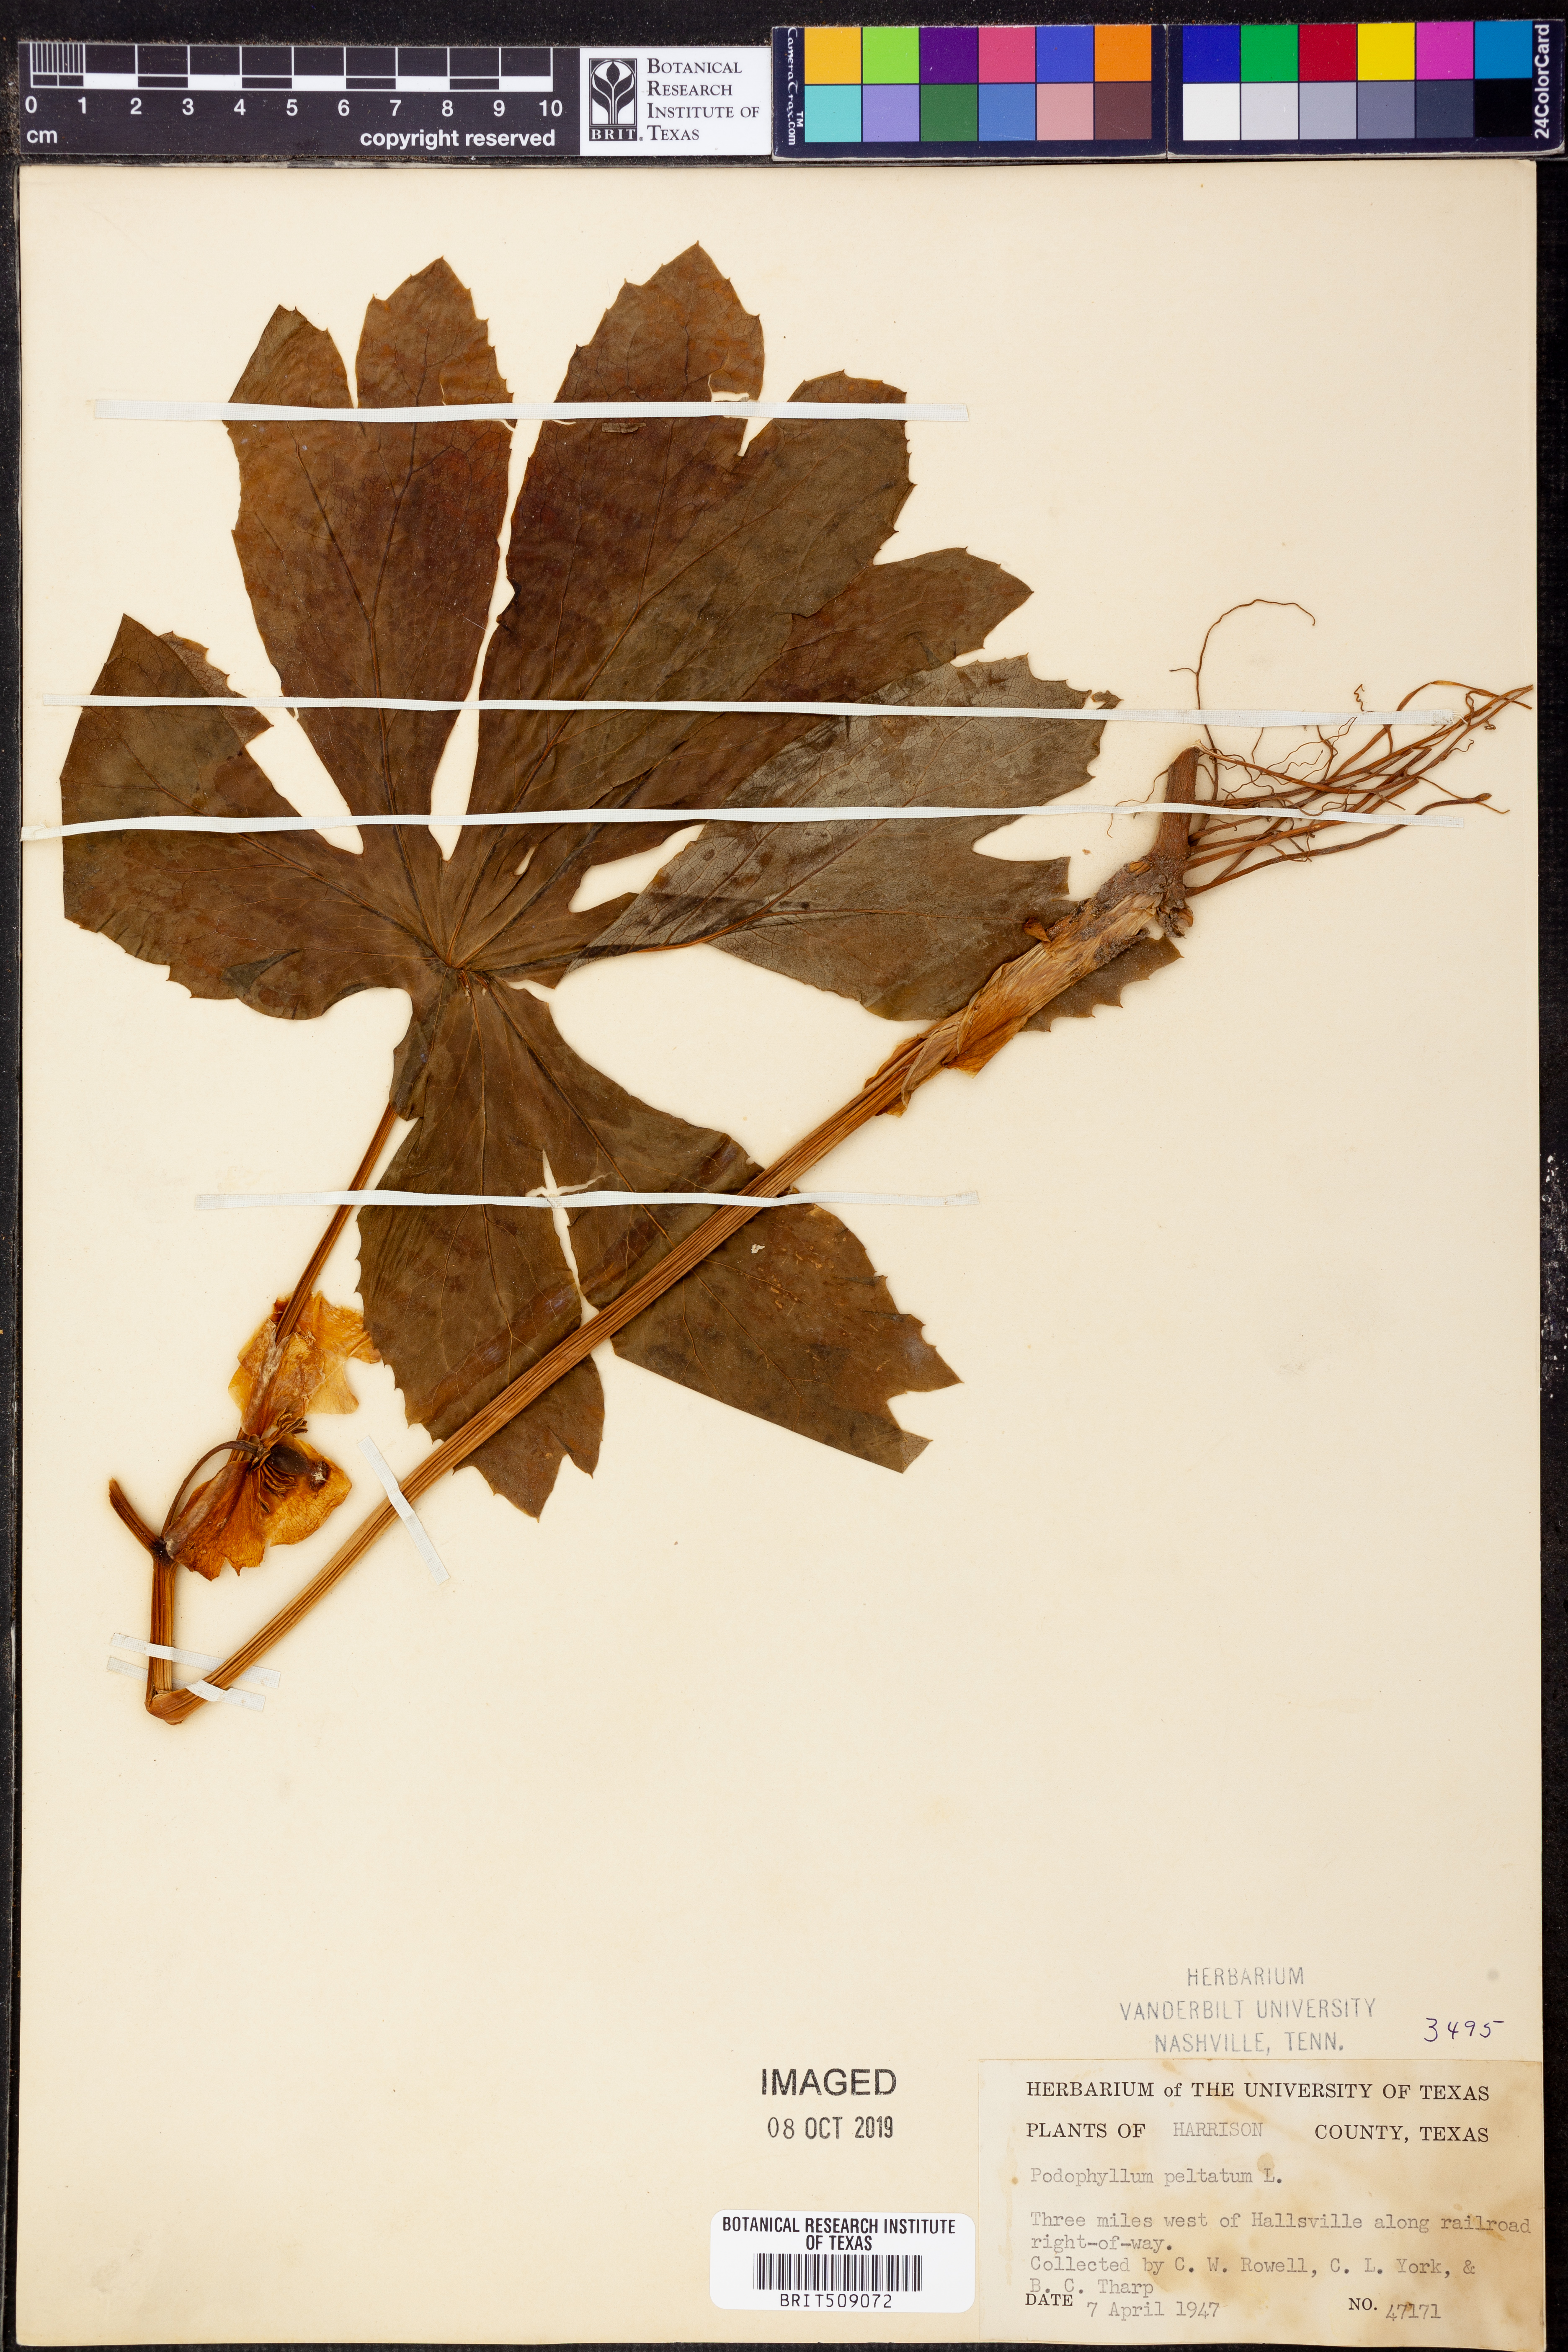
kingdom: Plantae
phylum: Tracheophyta
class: Magnoliopsida
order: Ranunculales
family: Berberidaceae
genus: Podophyllum
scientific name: Podophyllum peltatum
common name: Wild mandrake
